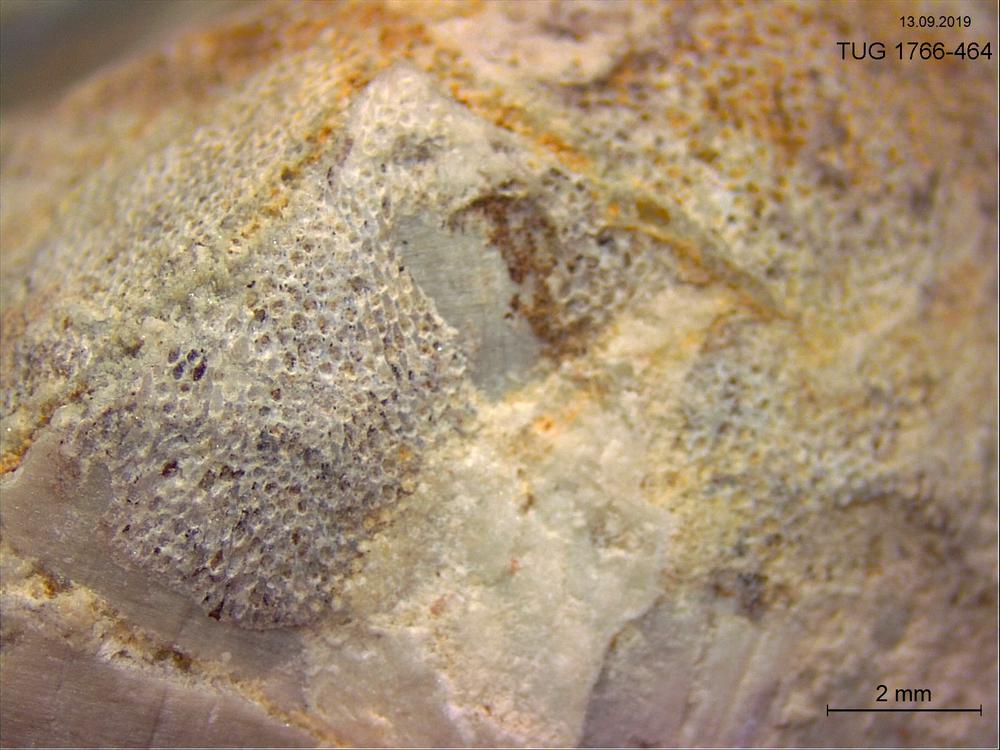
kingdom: Animalia
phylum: Bryozoa
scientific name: Bryozoa
